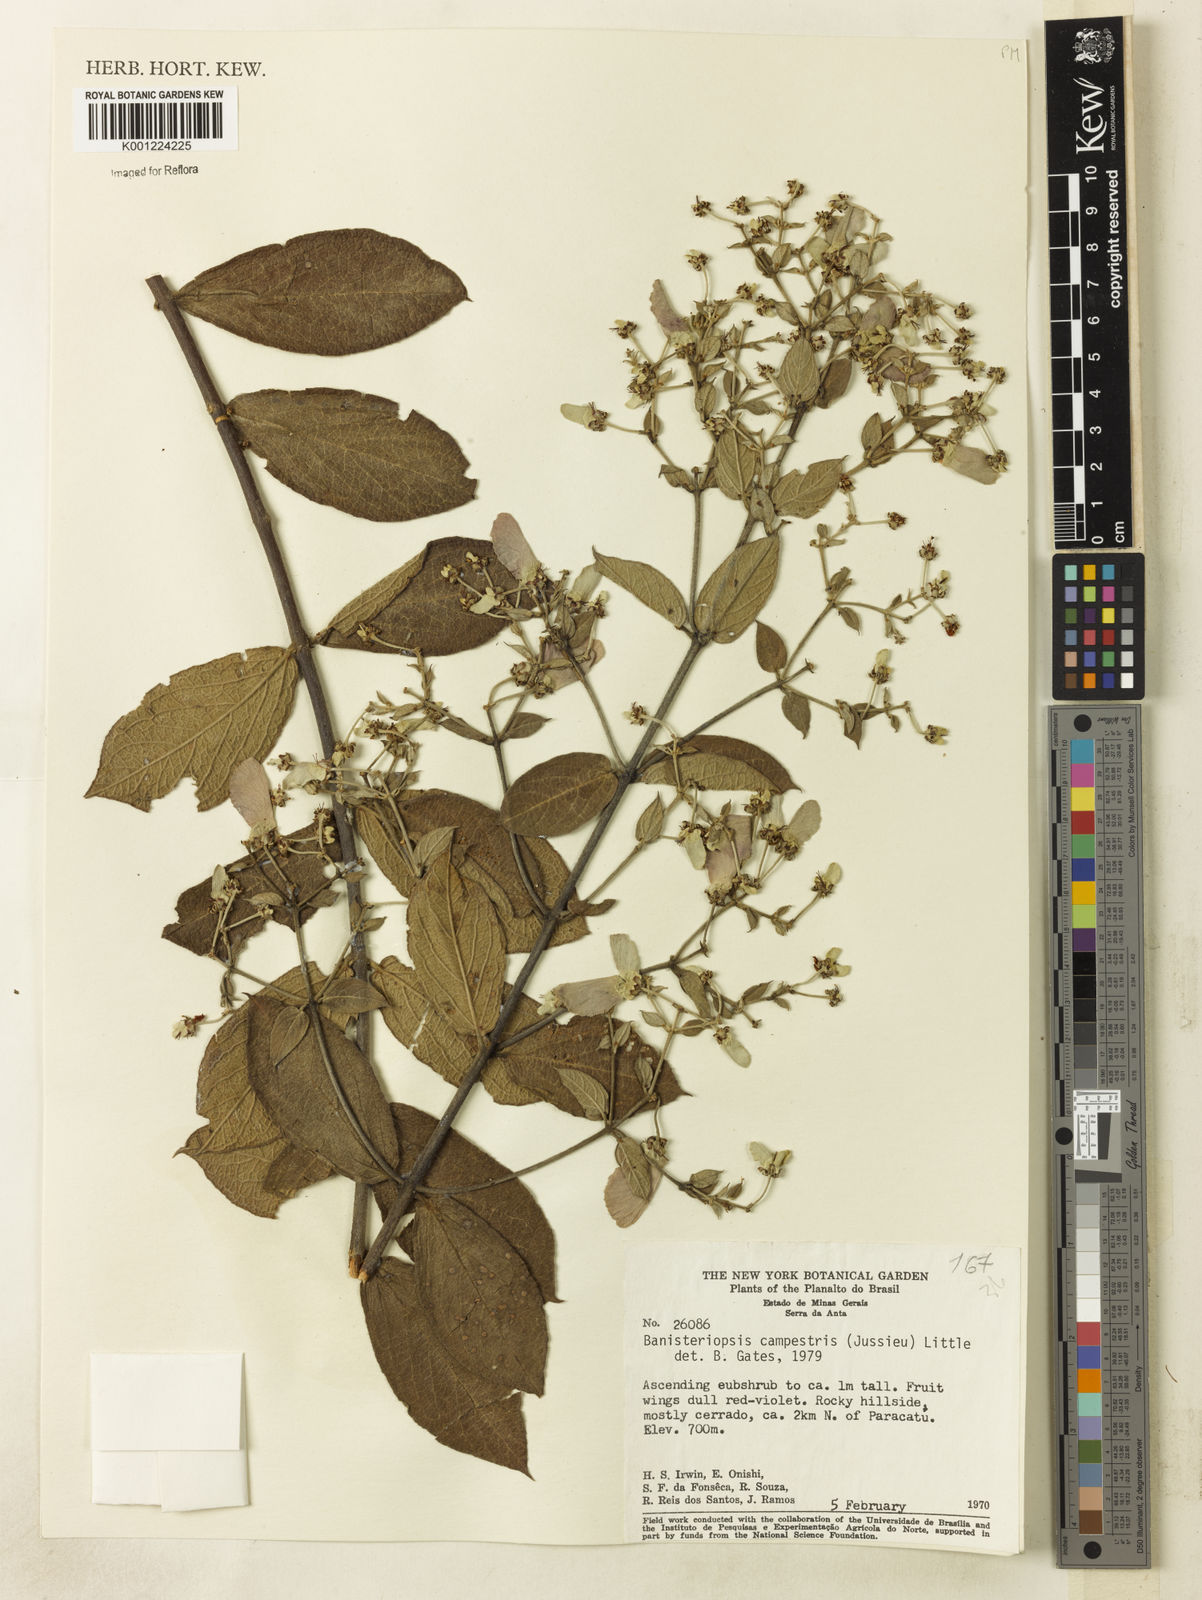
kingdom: Plantae
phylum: Tracheophyta
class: Magnoliopsida
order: Malpighiales
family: Malpighiaceae
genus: Banisteriopsis
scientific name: Banisteriopsis campestris
